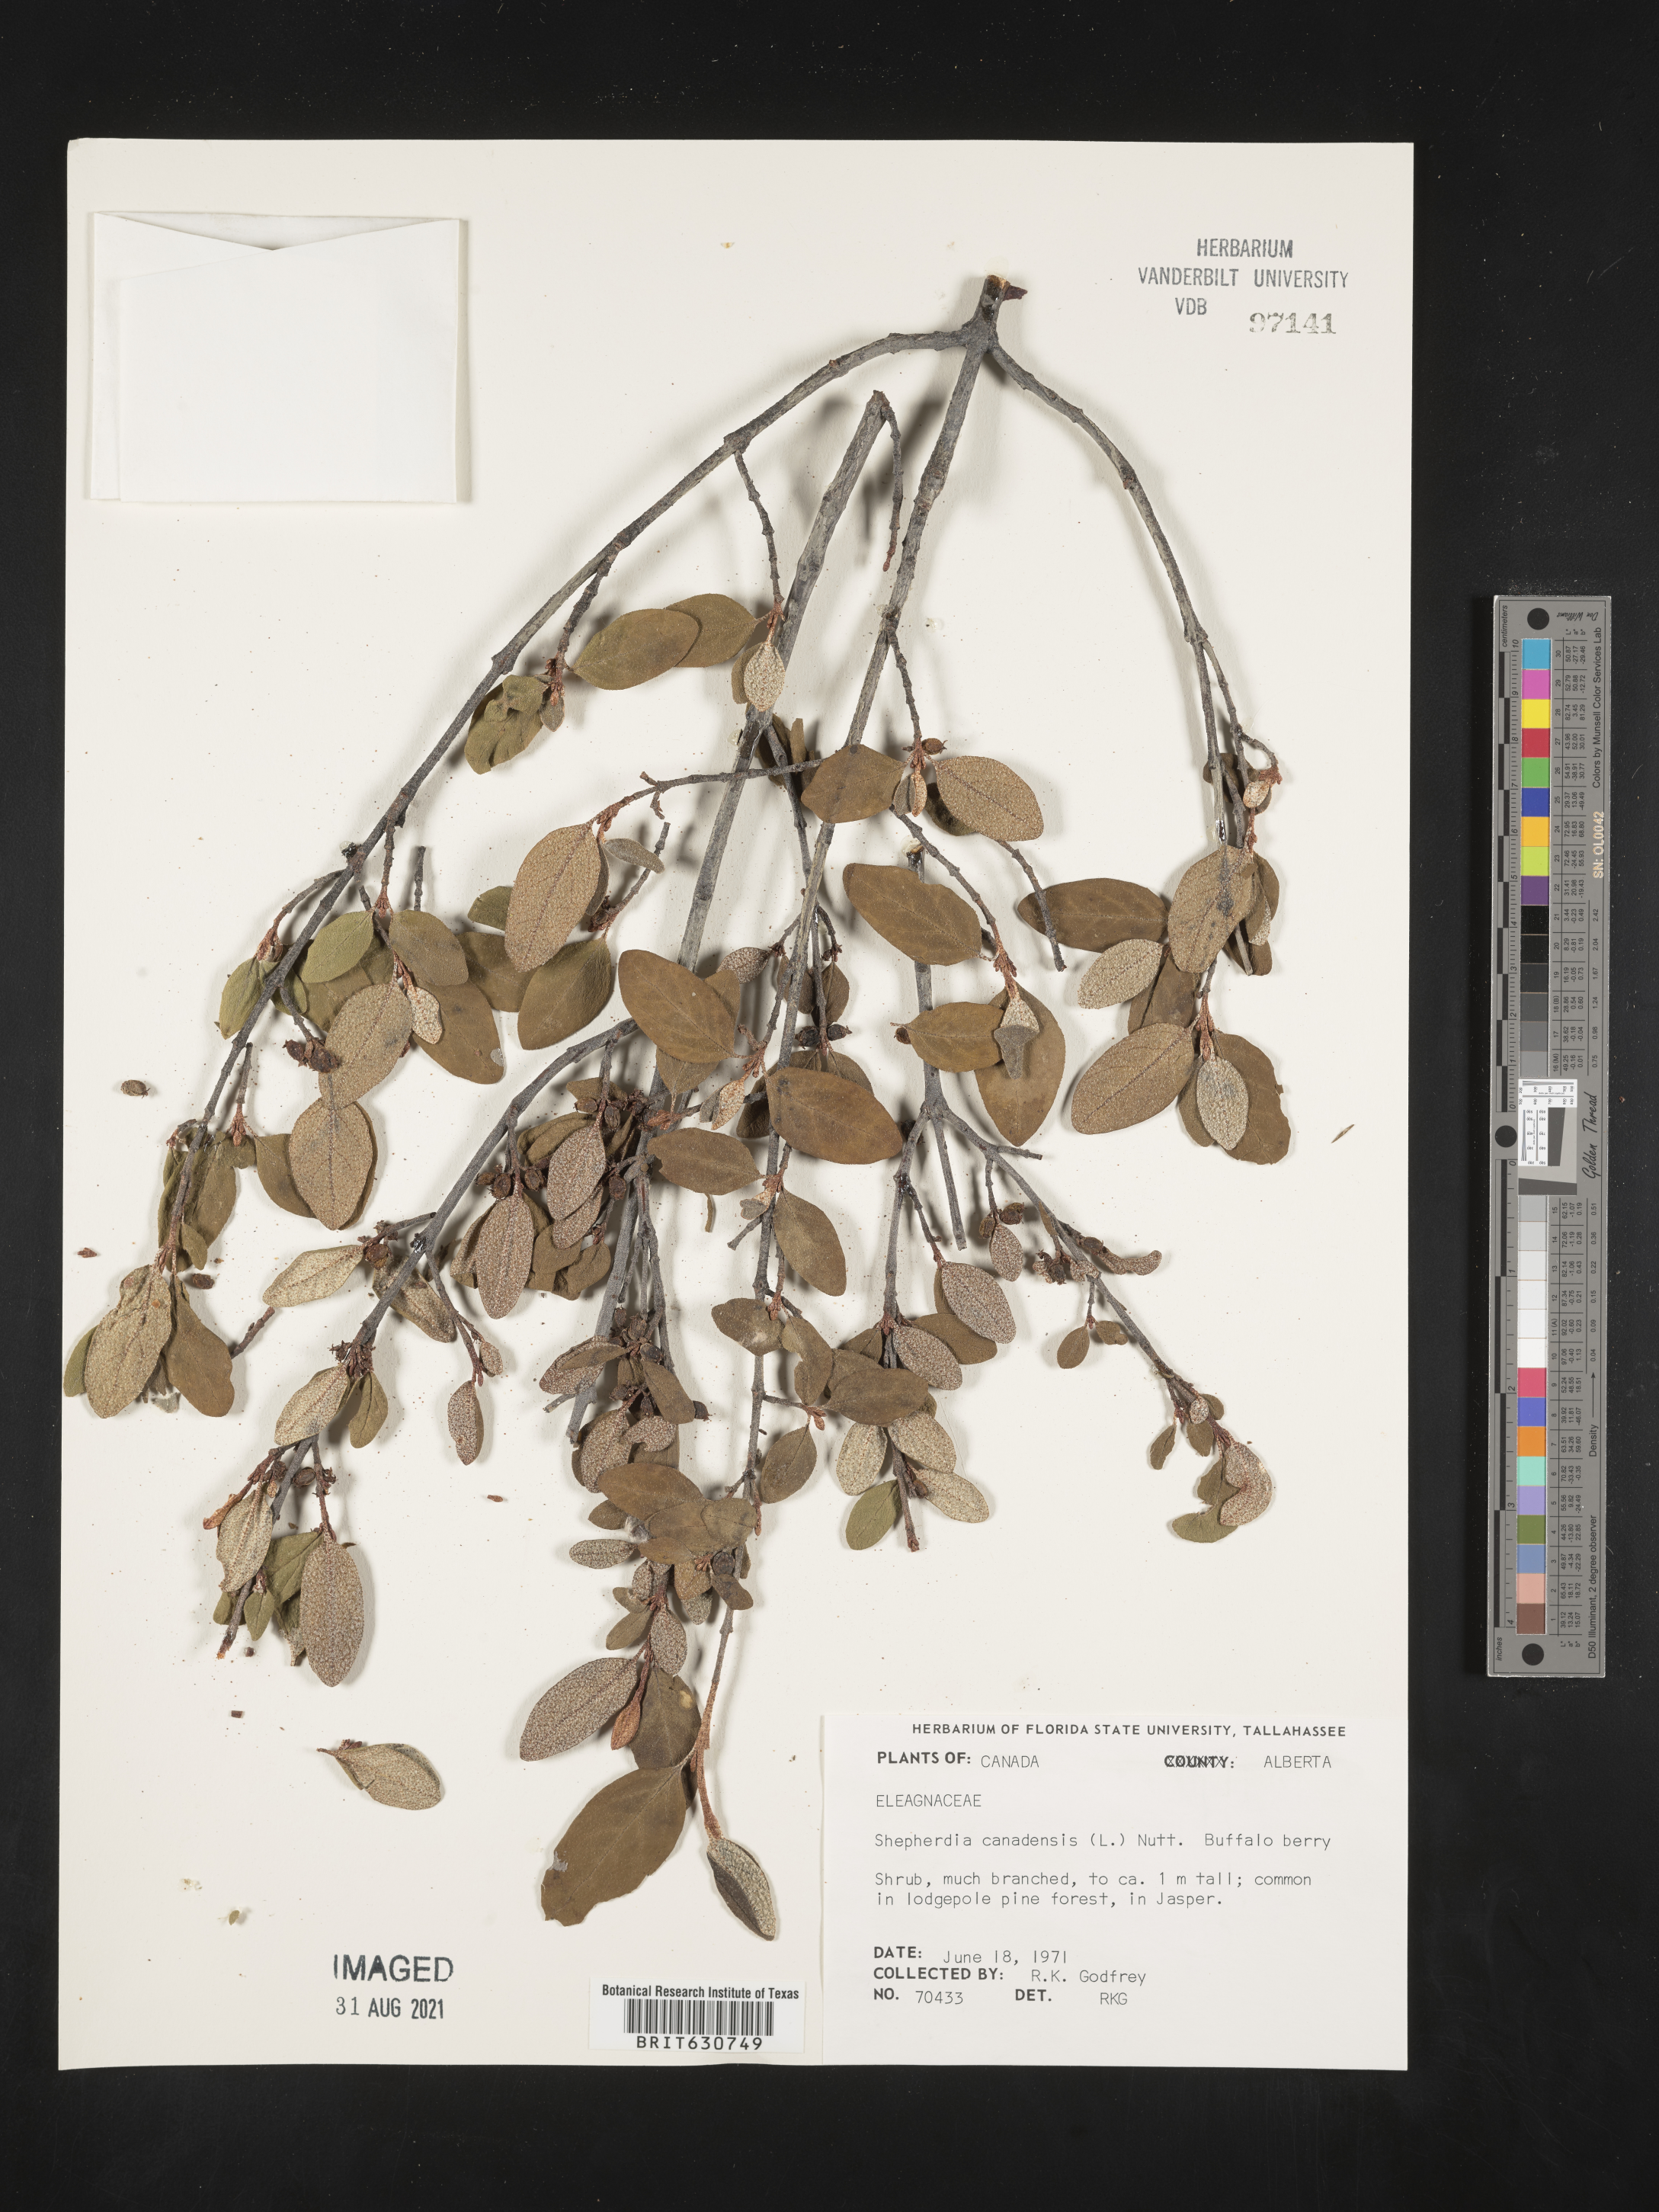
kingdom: Plantae
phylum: Tracheophyta
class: Magnoliopsida
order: Rosales
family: Elaeagnaceae
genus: Shepherdia
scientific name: Shepherdia
